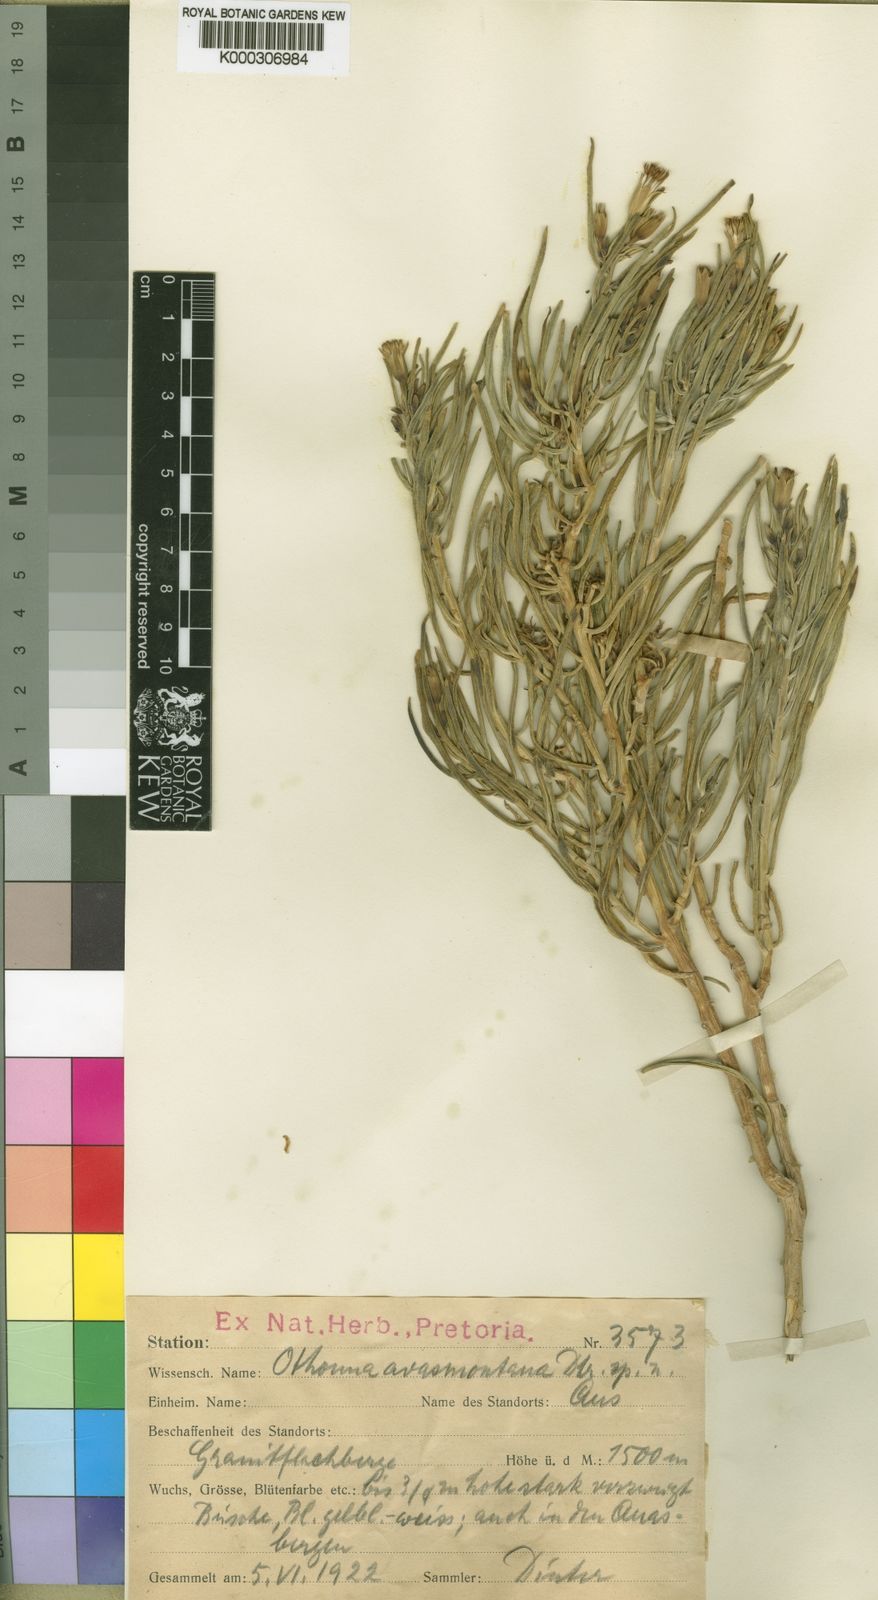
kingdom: Plantae
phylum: Tracheophyta
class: Magnoliopsida
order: Asterales
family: Asteraceae
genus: Curio
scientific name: Curio avasimontanus
